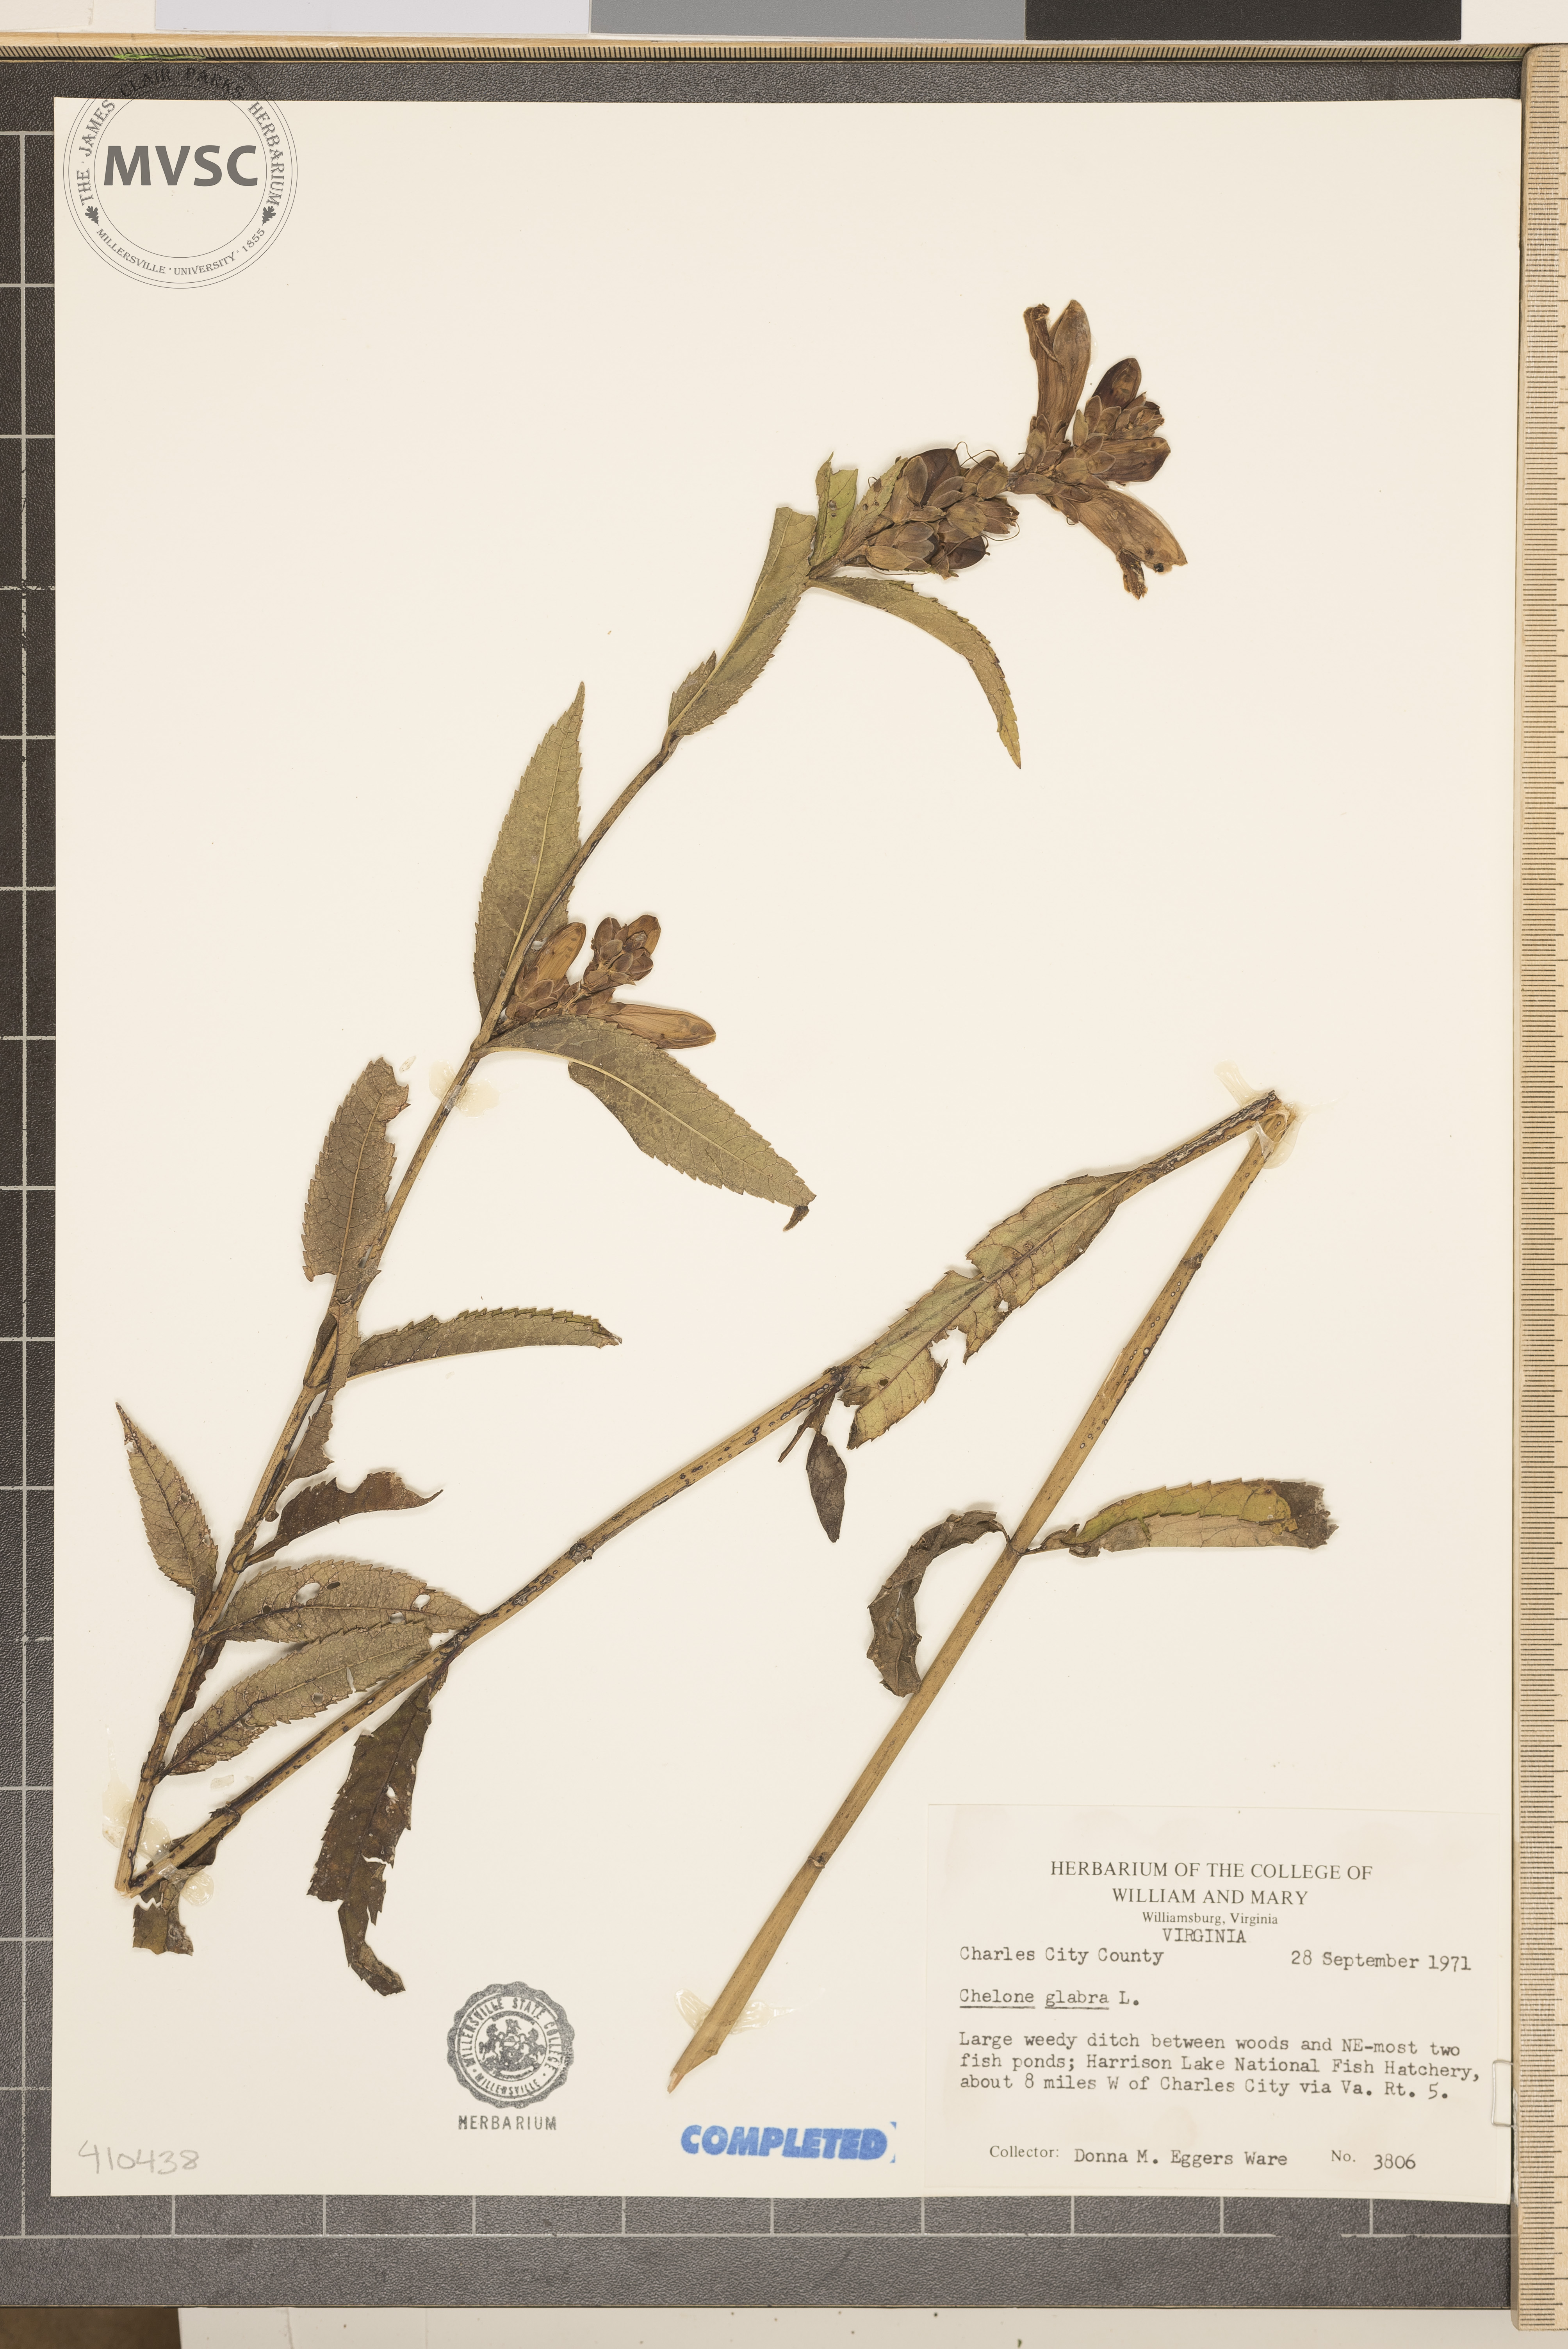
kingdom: Plantae
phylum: Tracheophyta
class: Magnoliopsida
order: Lamiales
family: Plantaginaceae
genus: Chelone
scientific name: Chelone glabra
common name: Snakehead
